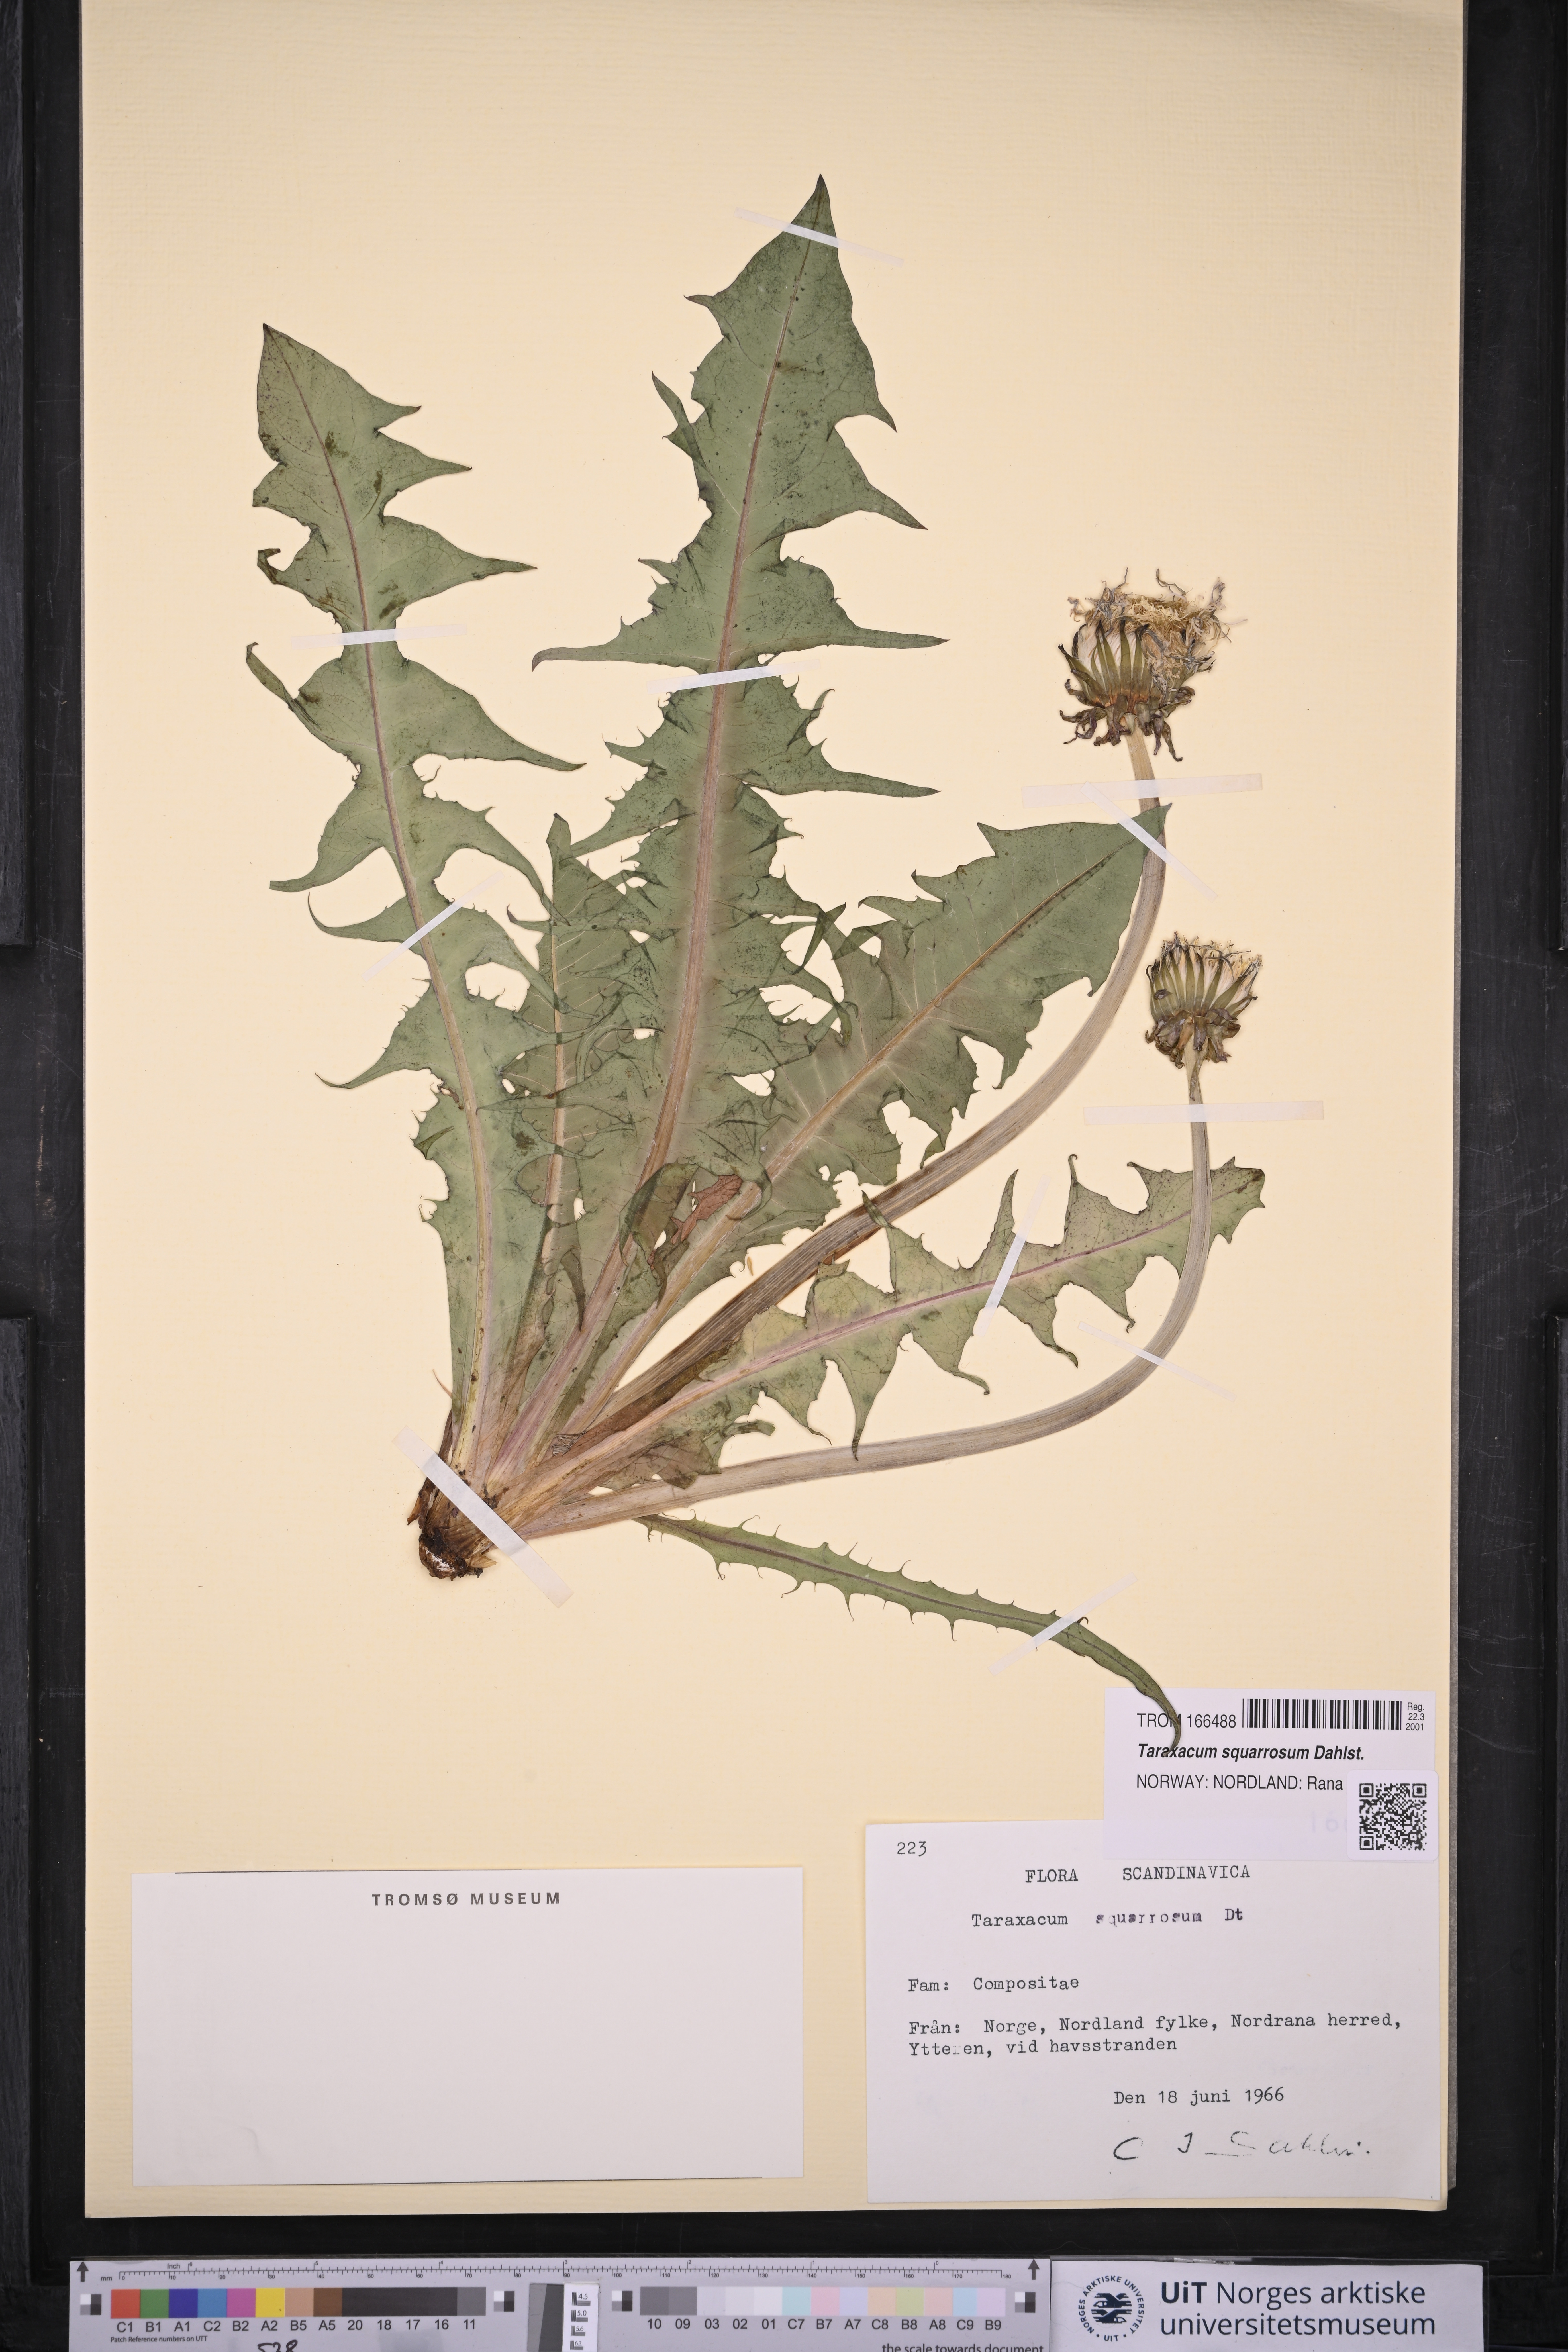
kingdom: Plantae
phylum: Tracheophyta
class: Magnoliopsida
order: Asterales
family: Asteraceae
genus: Taraxacum
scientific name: Taraxacum squarrosum
